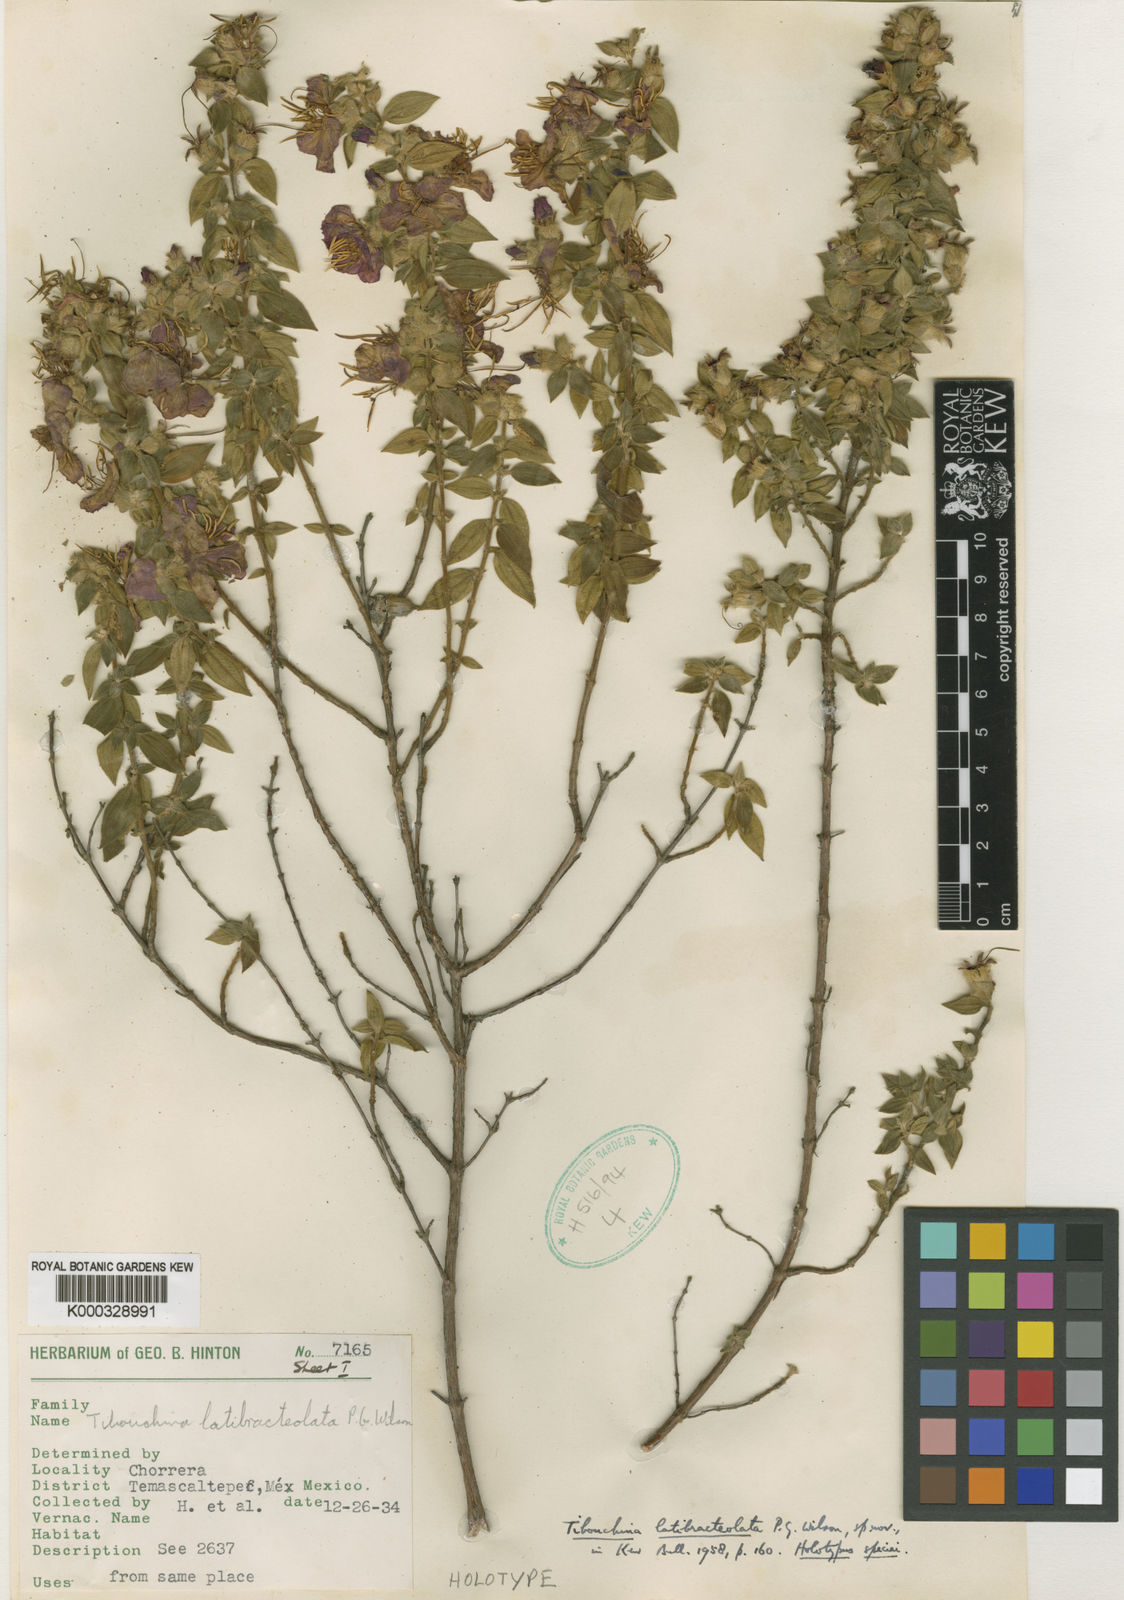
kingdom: Plantae
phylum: Tracheophyta
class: Magnoliopsida
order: Myrtales
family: Melastomataceae
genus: Tibouchina
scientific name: Tibouchina
